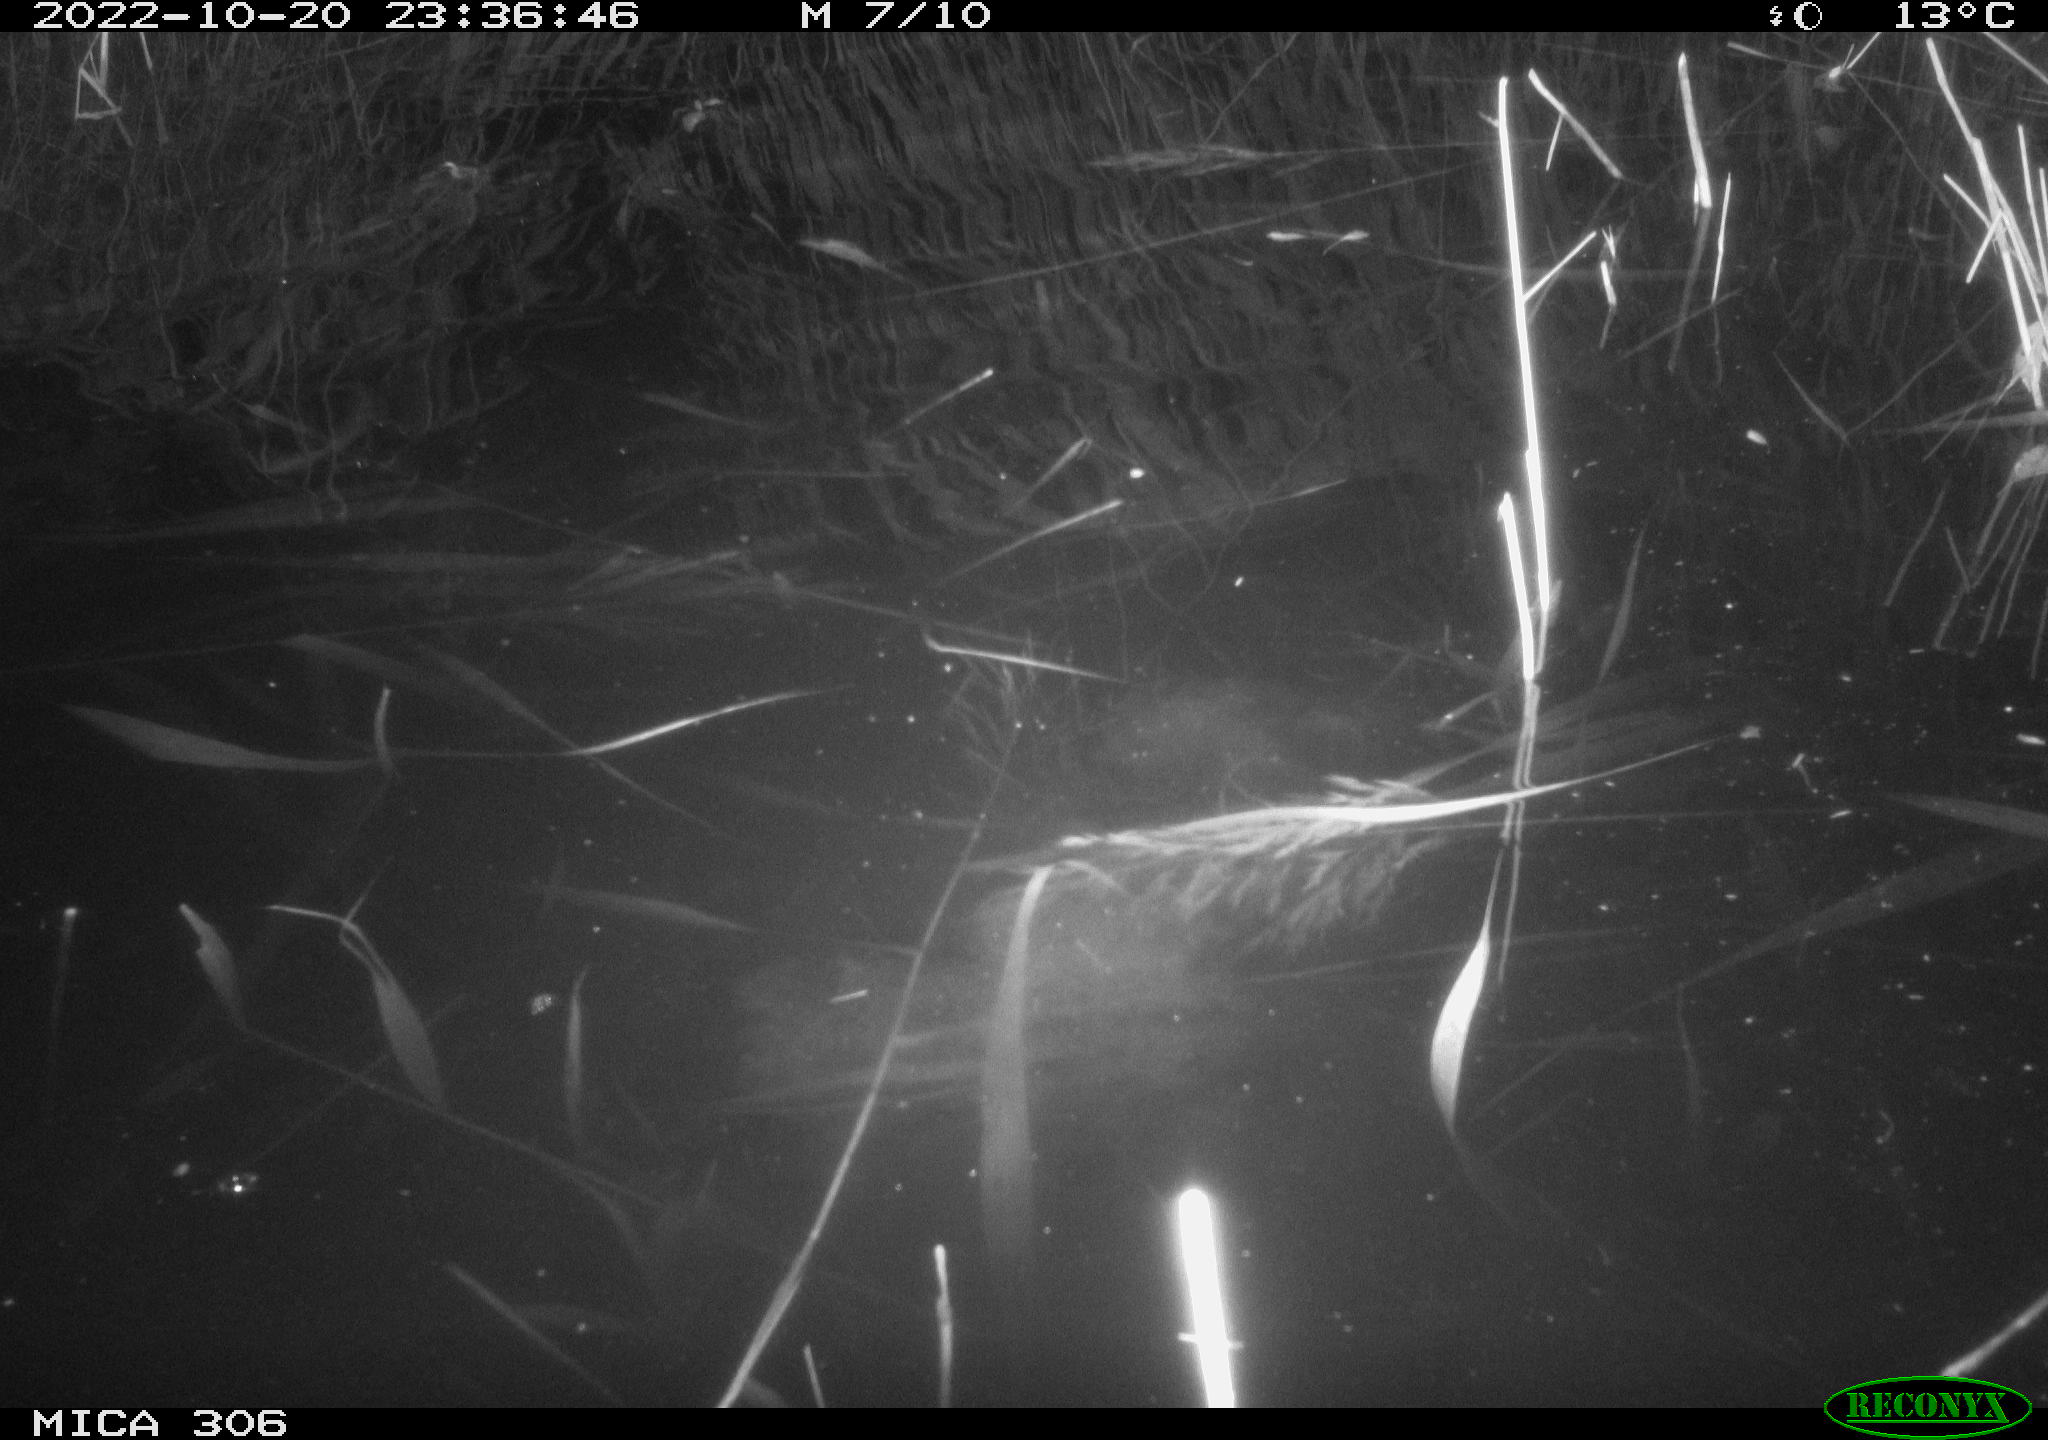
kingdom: Animalia
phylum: Chordata
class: Mammalia
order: Rodentia
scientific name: Rodentia
